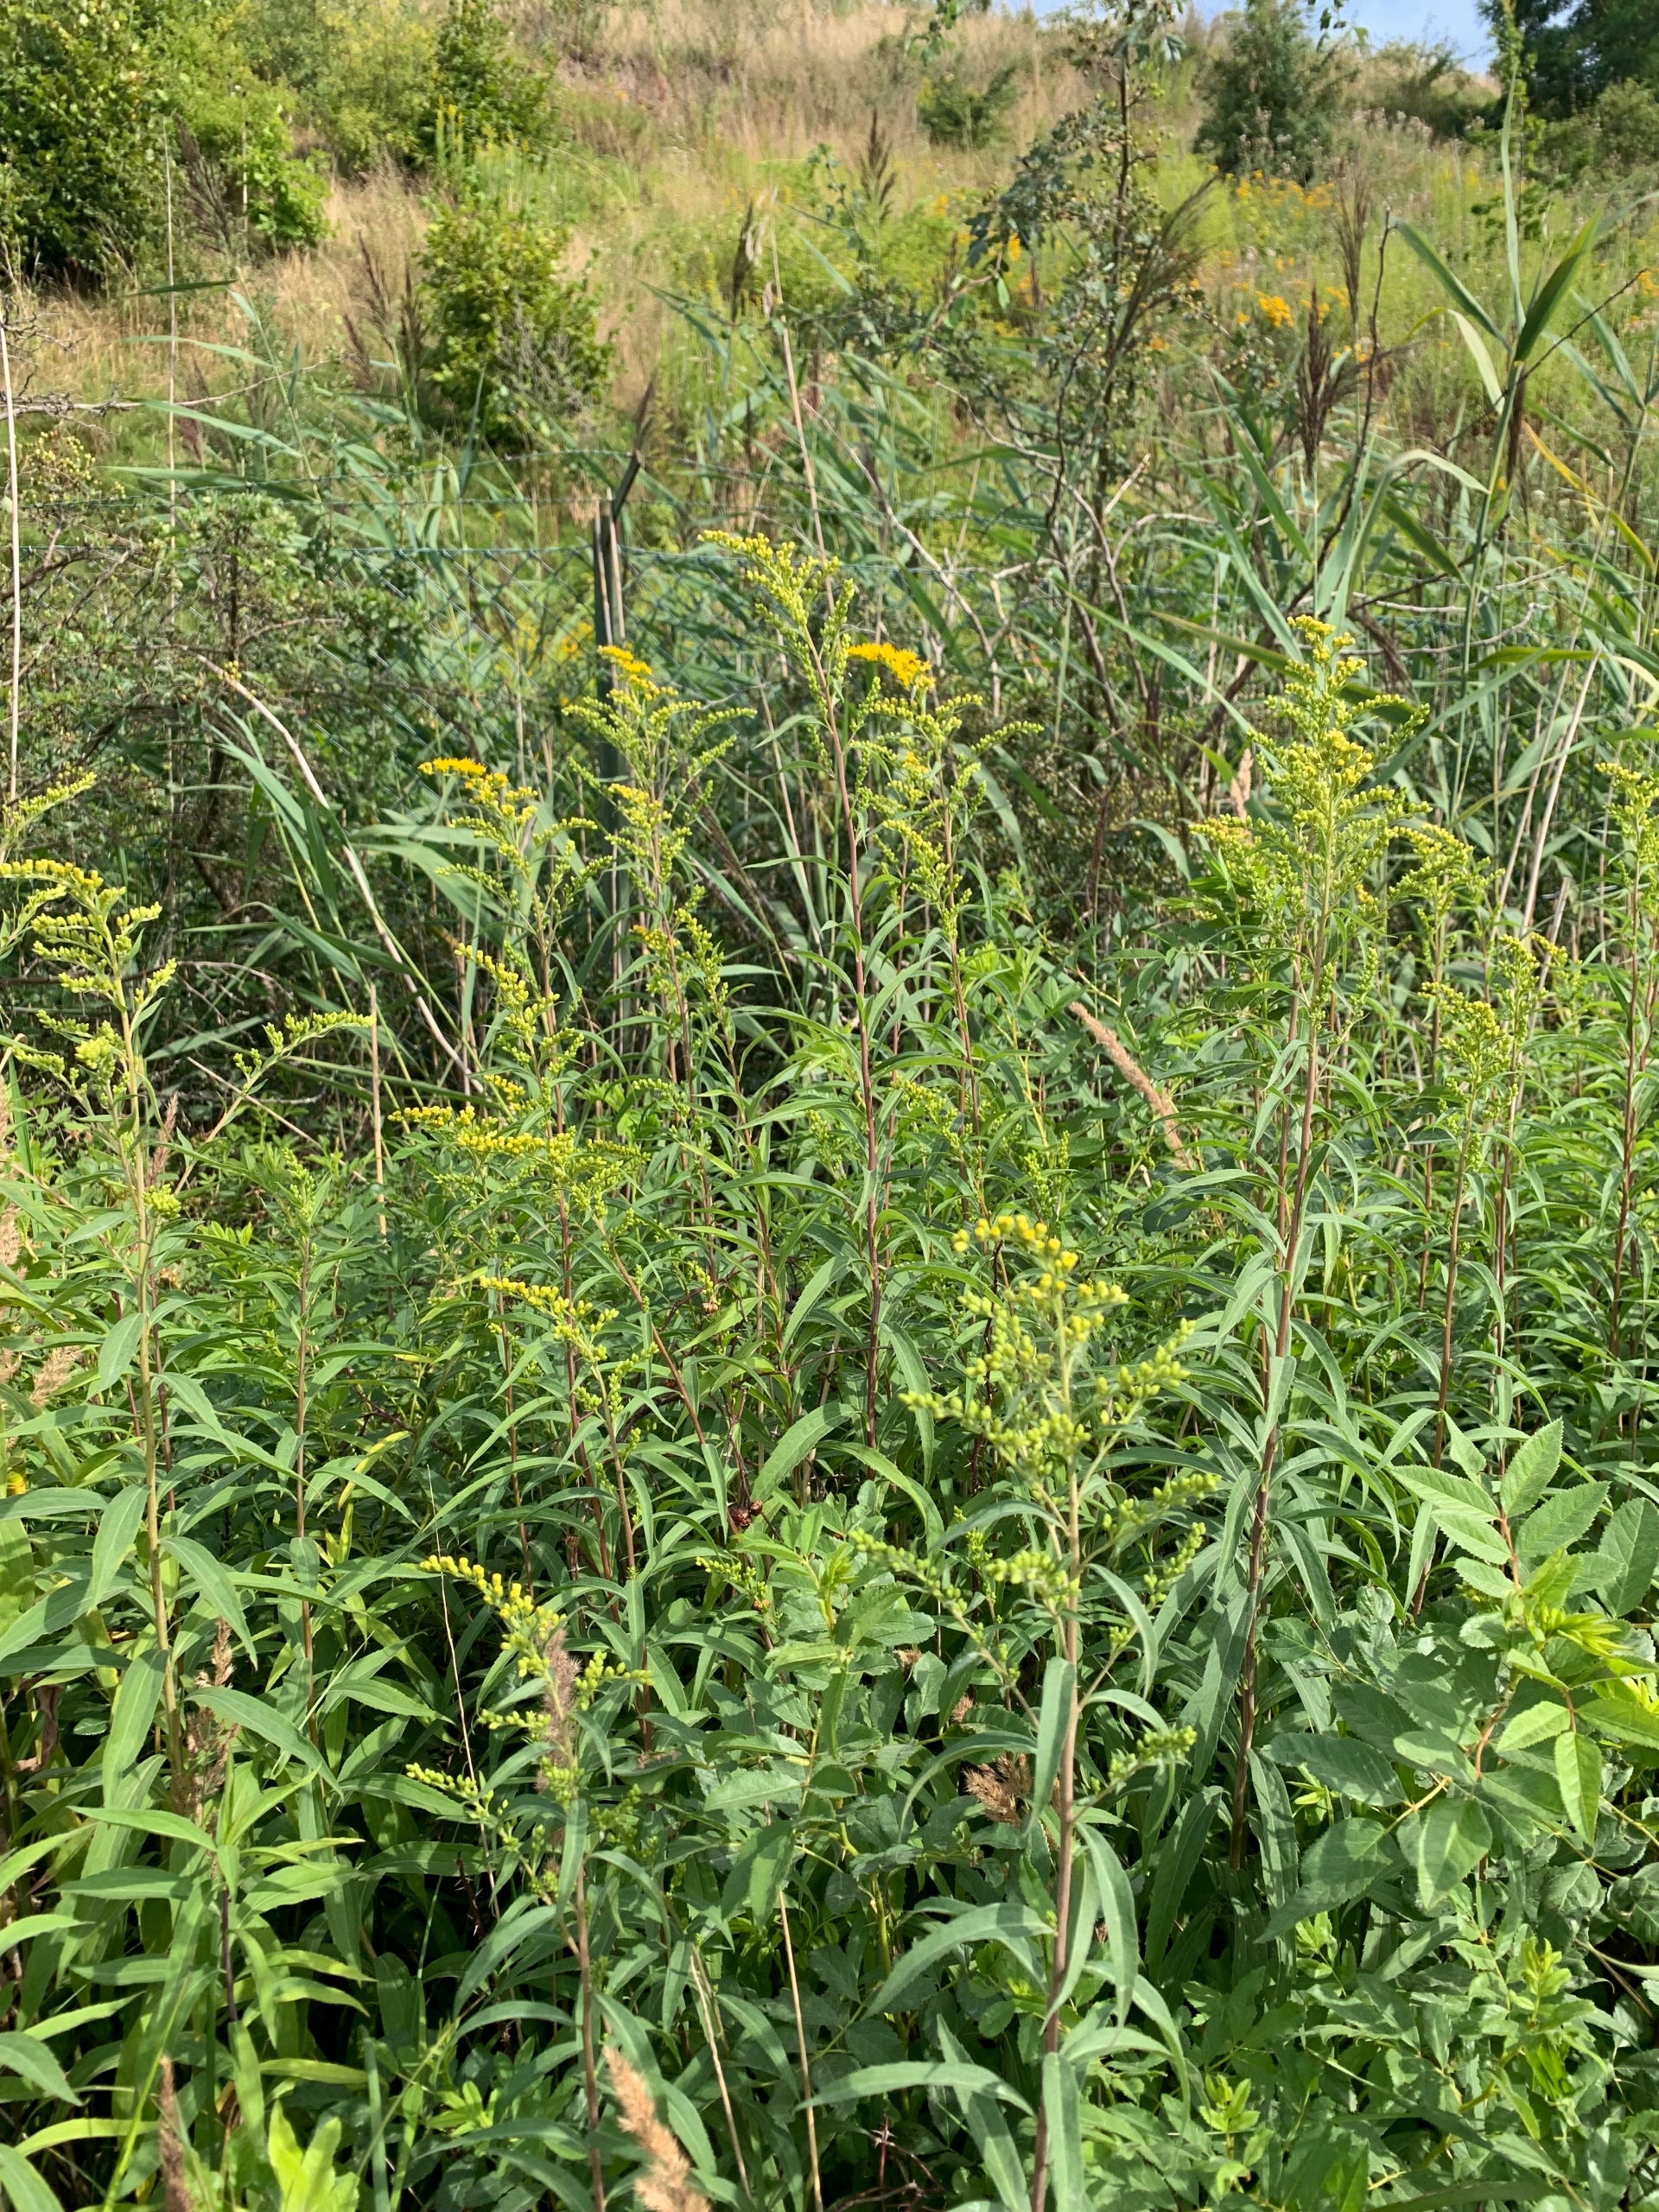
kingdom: Plantae
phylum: Tracheophyta
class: Magnoliopsida
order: Asterales
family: Asteraceae
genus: Solidago
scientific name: Solidago gigantea
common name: Sildig gyldenris
